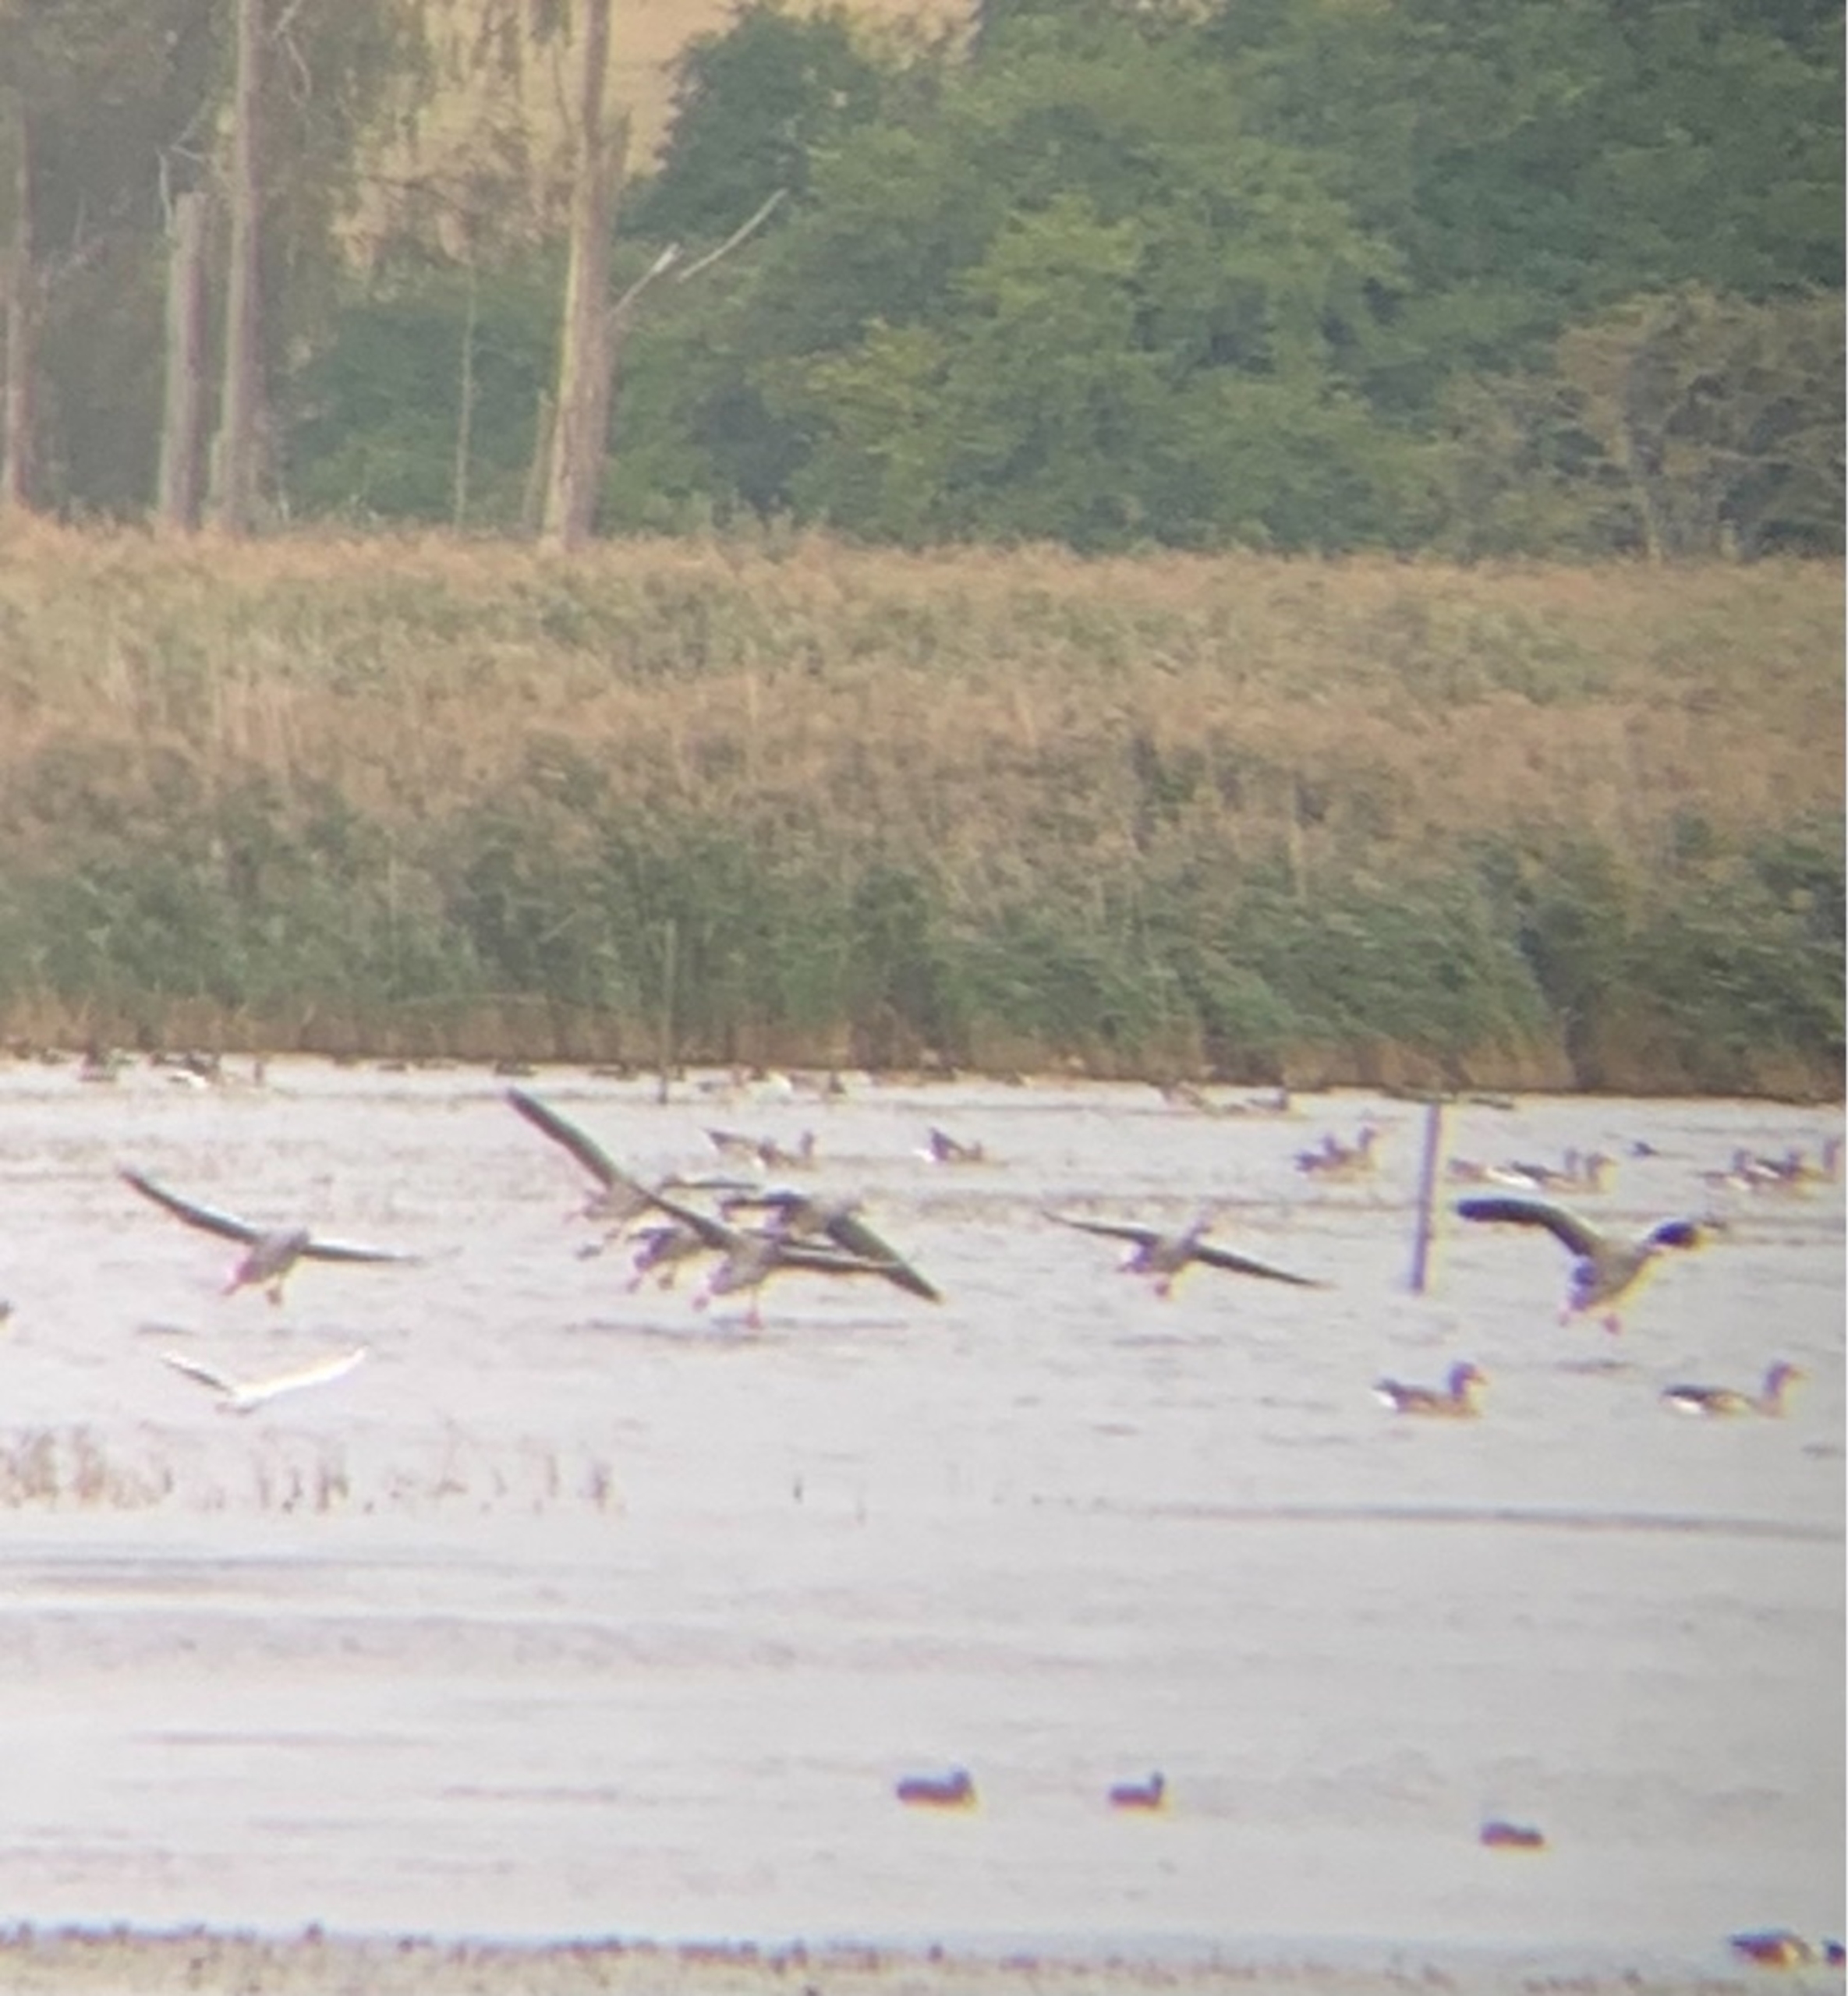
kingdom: Animalia
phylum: Chordata
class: Aves
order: Anseriformes
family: Anatidae
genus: Anser
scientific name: Anser anser
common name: Grågås
